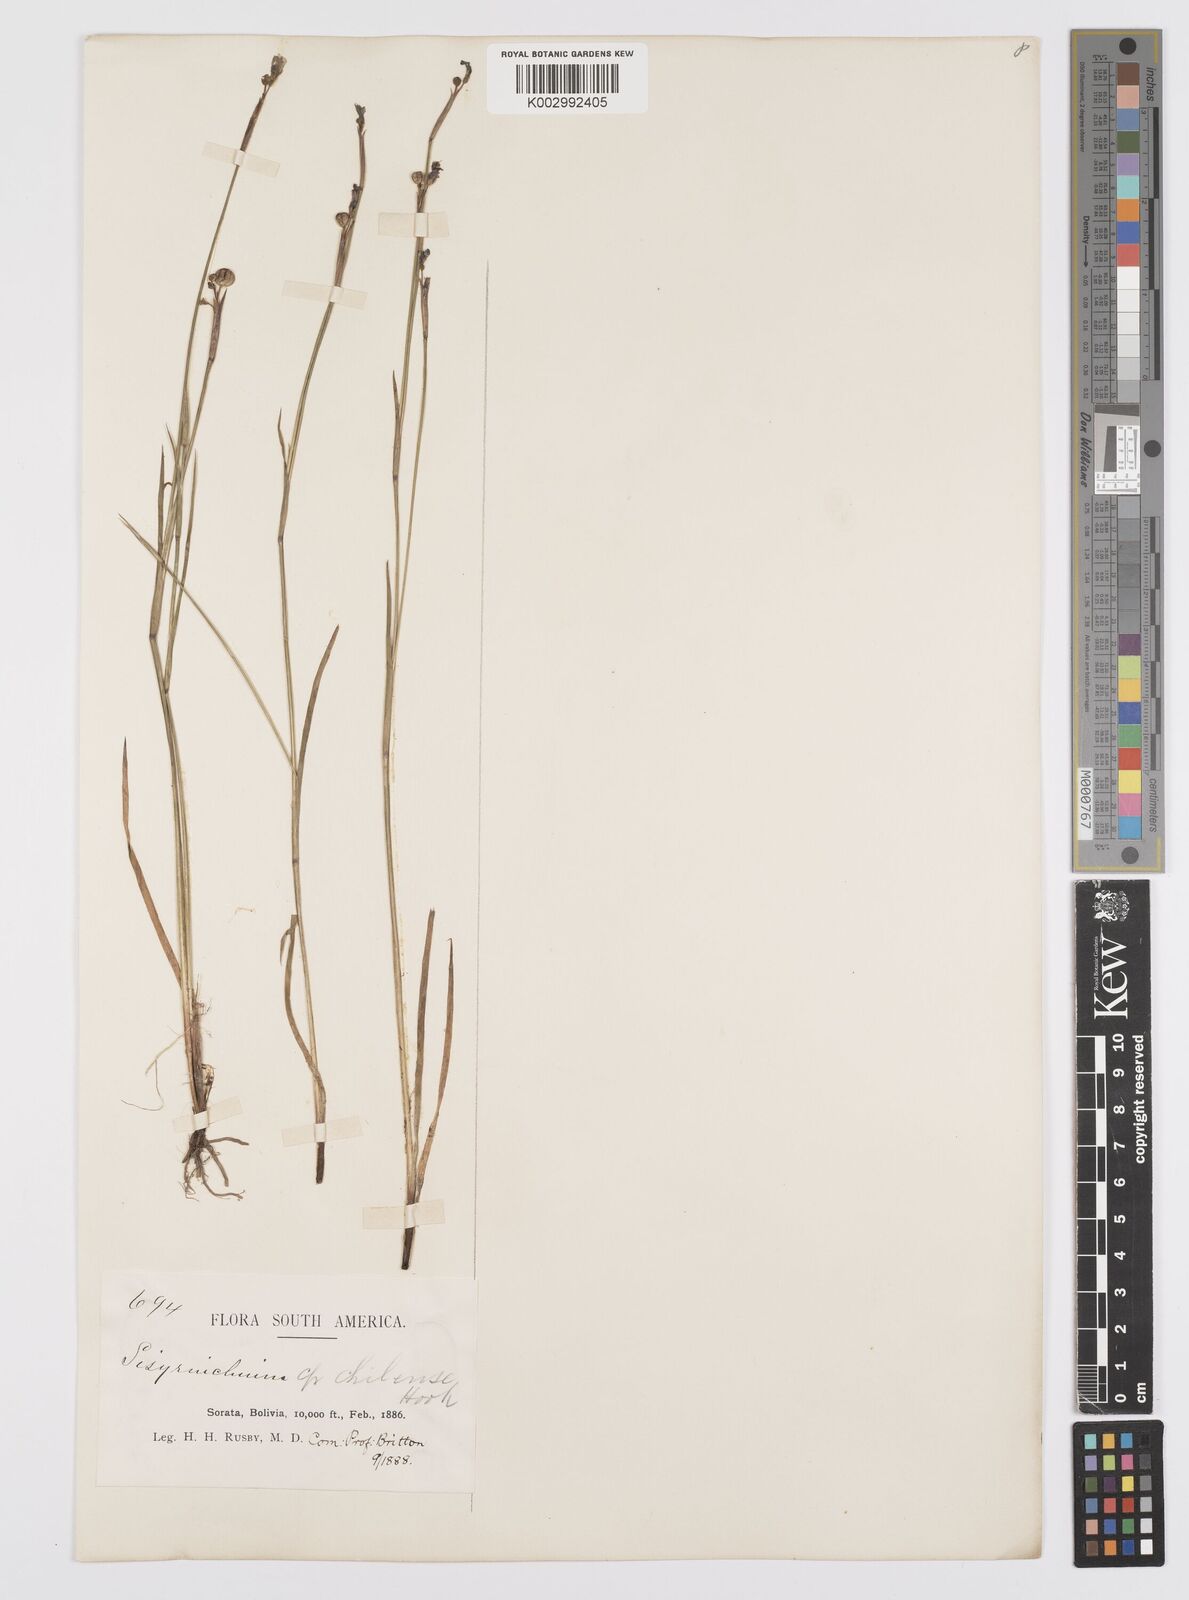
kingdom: Plantae
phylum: Tracheophyta
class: Liliopsida
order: Asparagales
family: Iridaceae
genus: Sisyrinchium
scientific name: Sisyrinchium chilense
